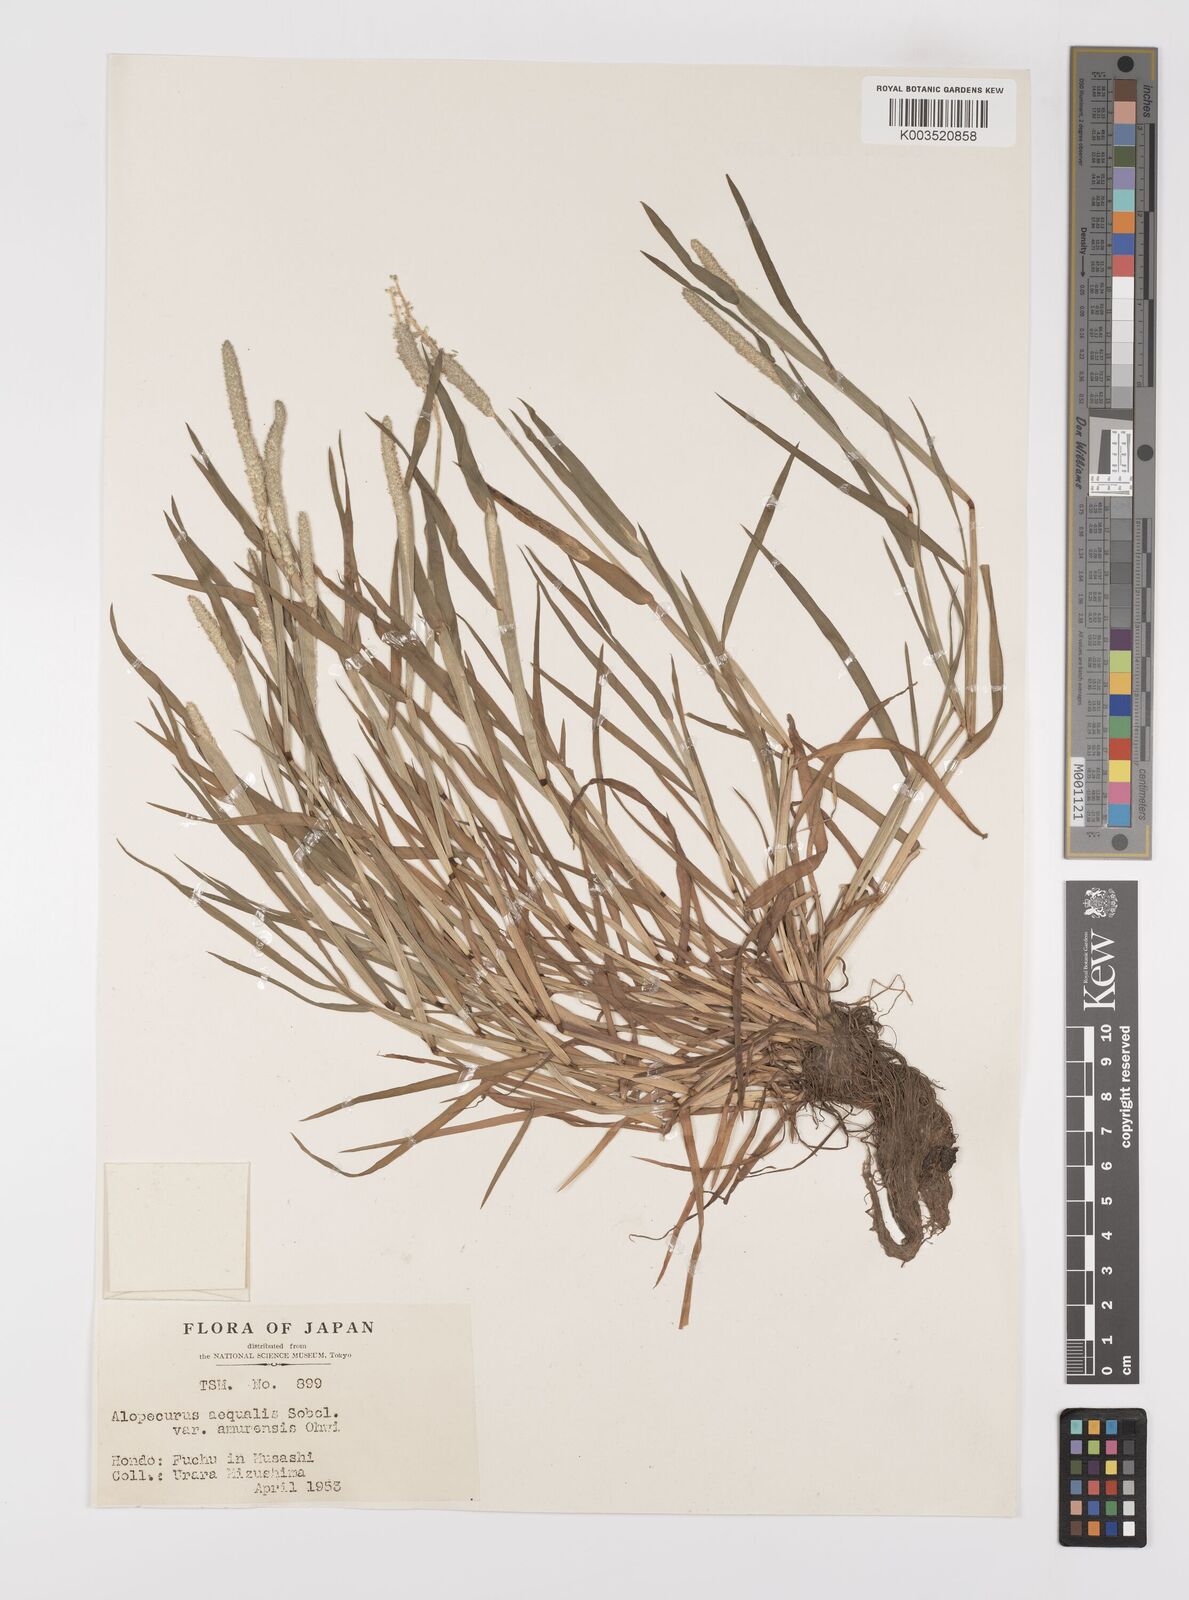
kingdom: Plantae
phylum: Tracheophyta
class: Liliopsida
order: Poales
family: Poaceae
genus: Alopecurus
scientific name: Alopecurus aequalis
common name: Orange foxtail
